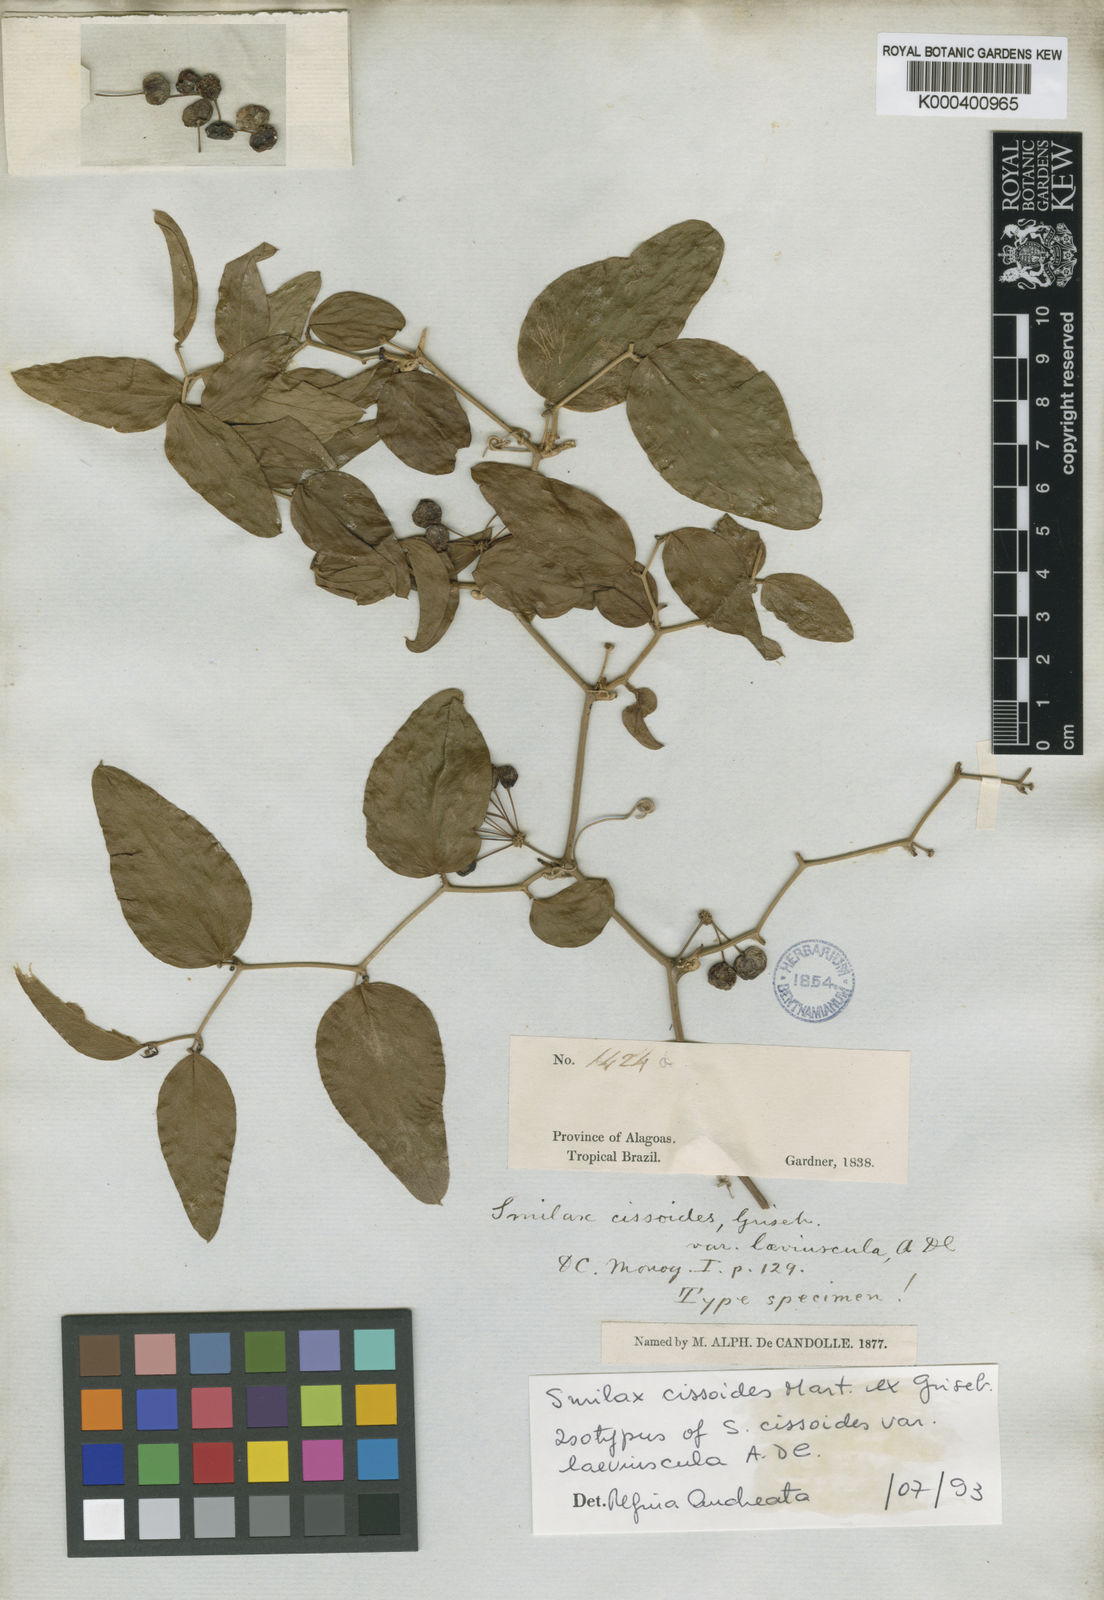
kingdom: Plantae
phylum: Tracheophyta
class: Liliopsida
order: Liliales
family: Smilacaceae
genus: Smilax
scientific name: Smilax cissoides
